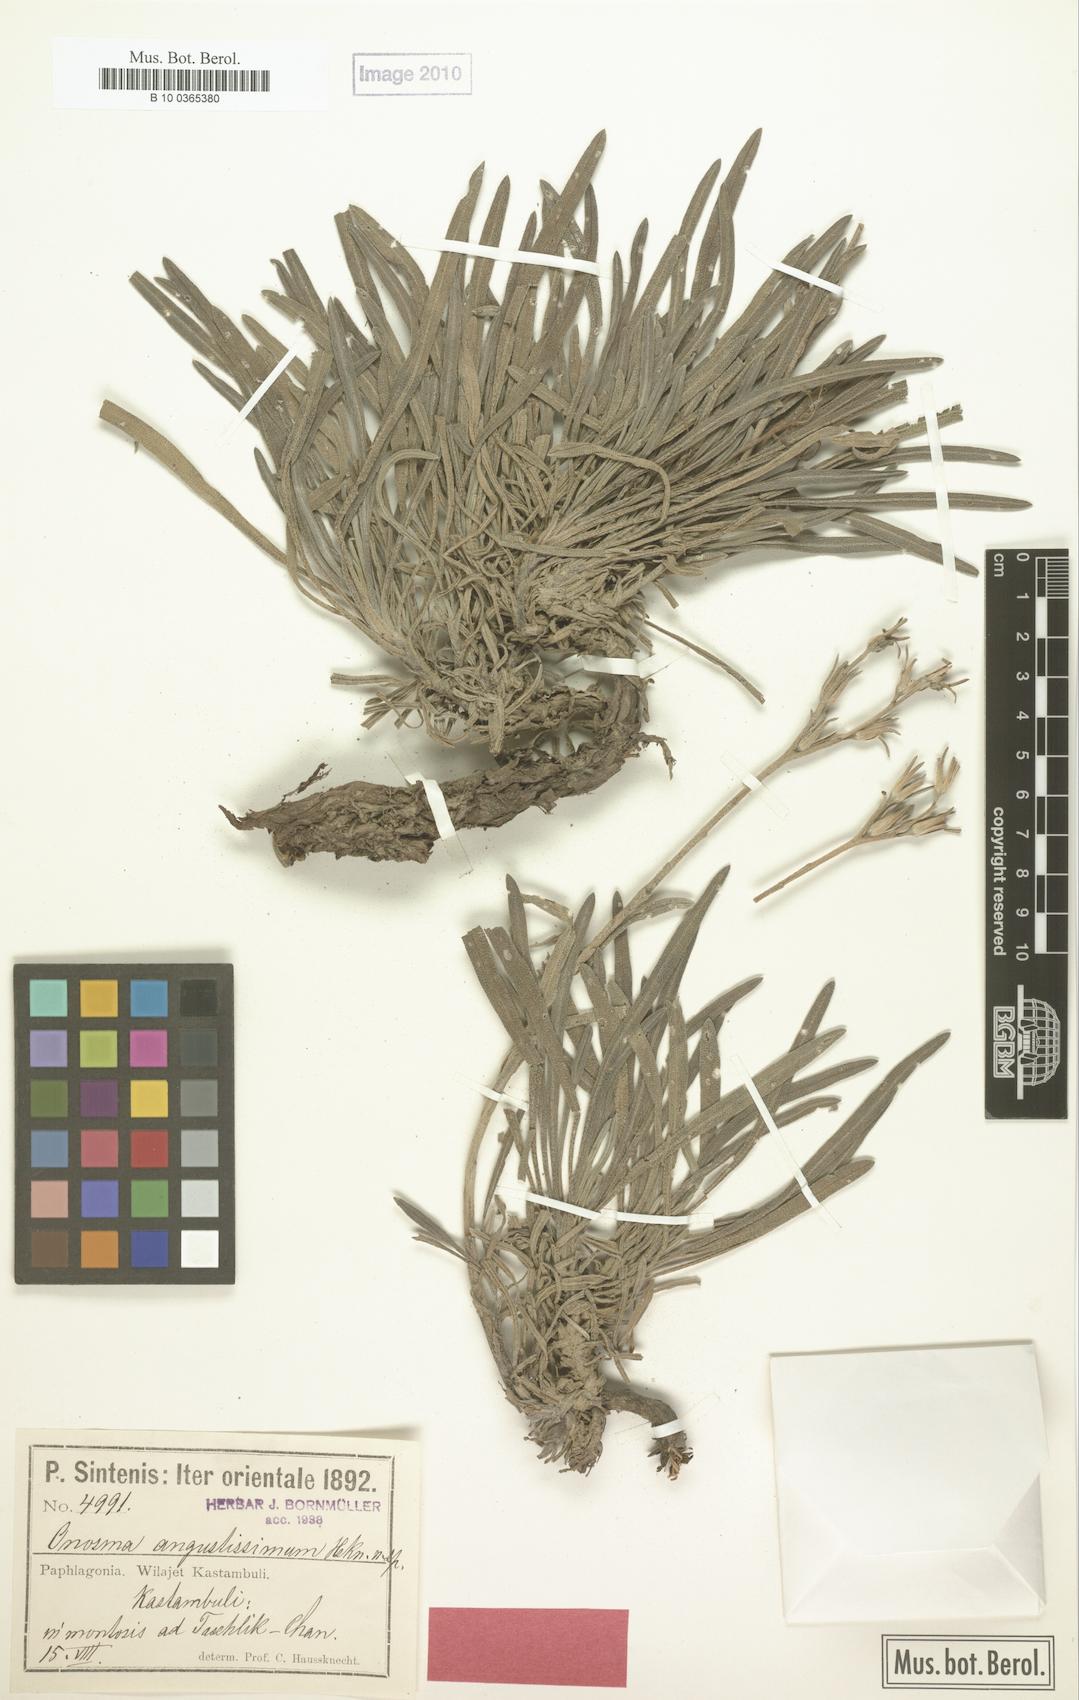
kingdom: Plantae
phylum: Tracheophyta
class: Magnoliopsida
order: Boraginales
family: Boraginaceae
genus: Onosma
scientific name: Onosma angustissima
